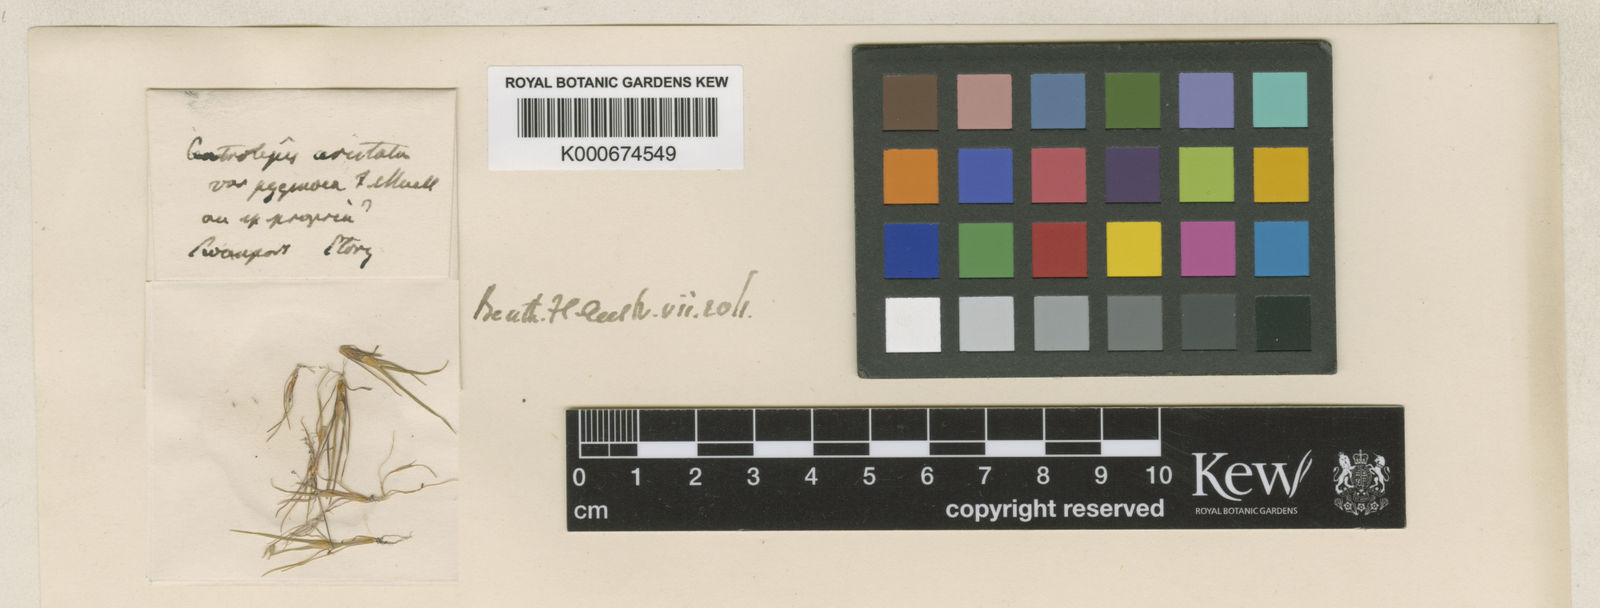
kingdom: Plantae
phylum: Tracheophyta
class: Liliopsida
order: Poales
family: Restionaceae
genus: Centrolepis
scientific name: Centrolepis aristata
